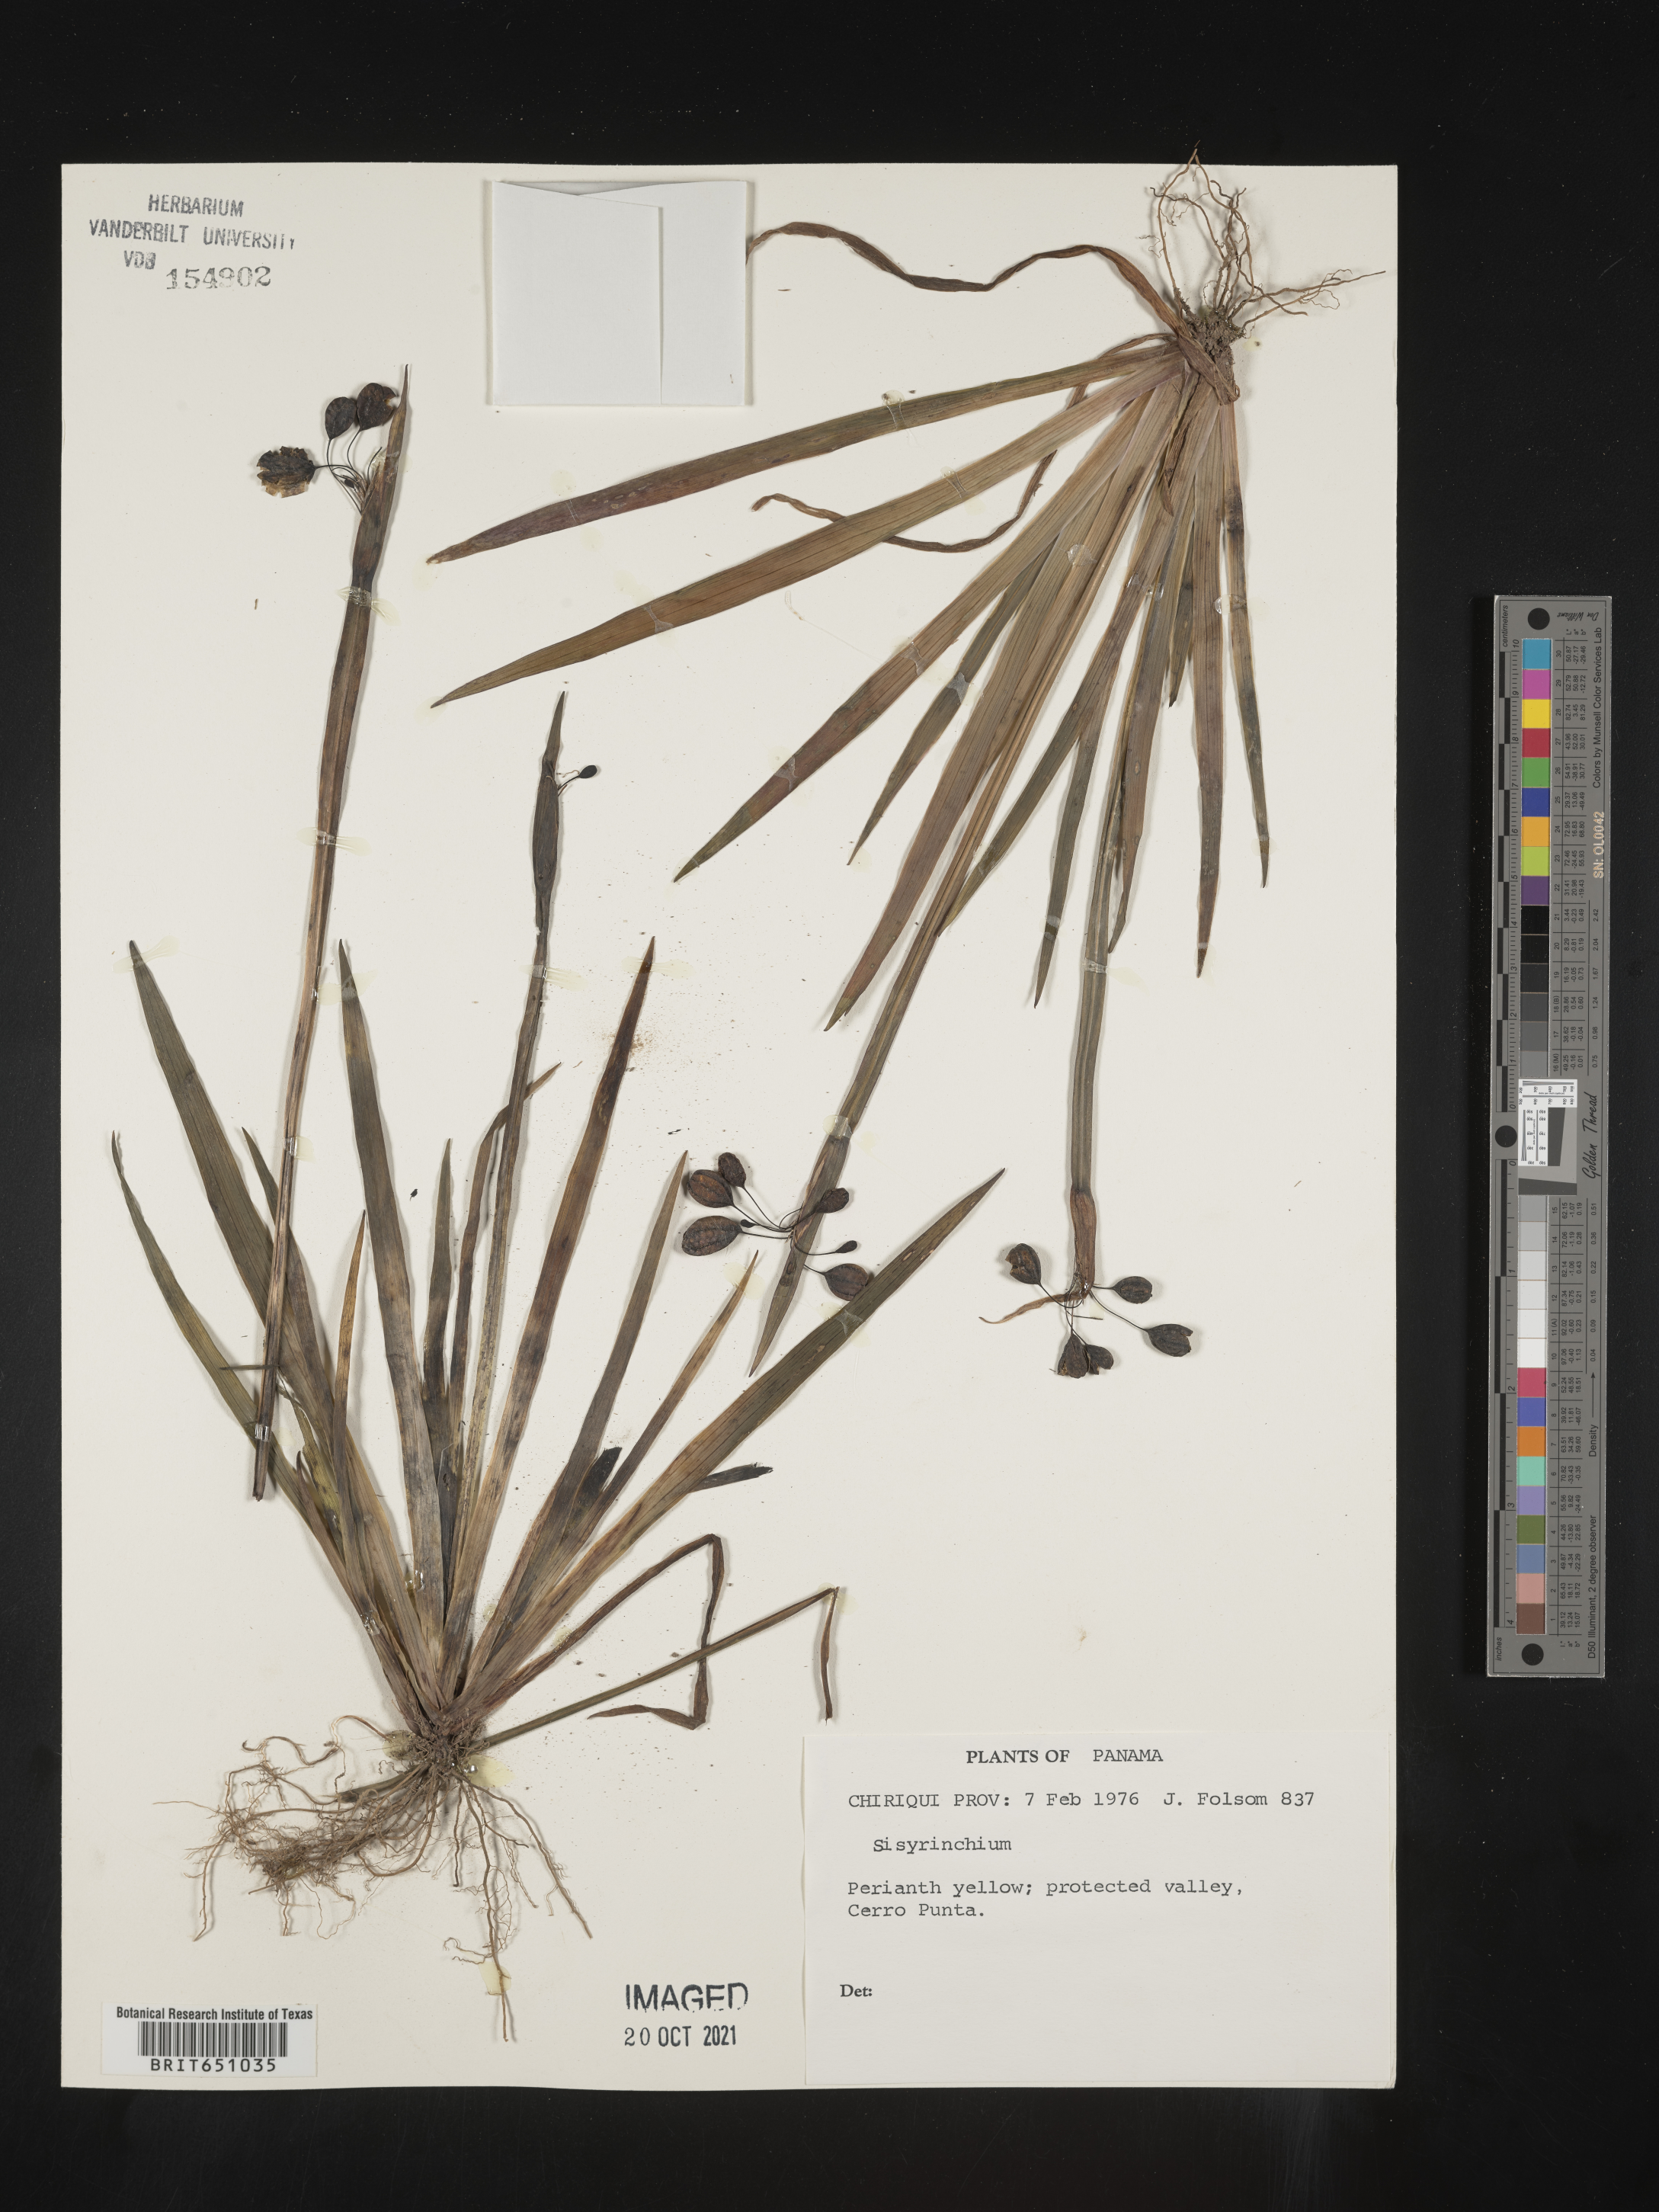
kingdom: Plantae
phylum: Tracheophyta
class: Liliopsida
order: Asparagales
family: Iridaceae
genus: Sisyrinchium
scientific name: Sisyrinchium
